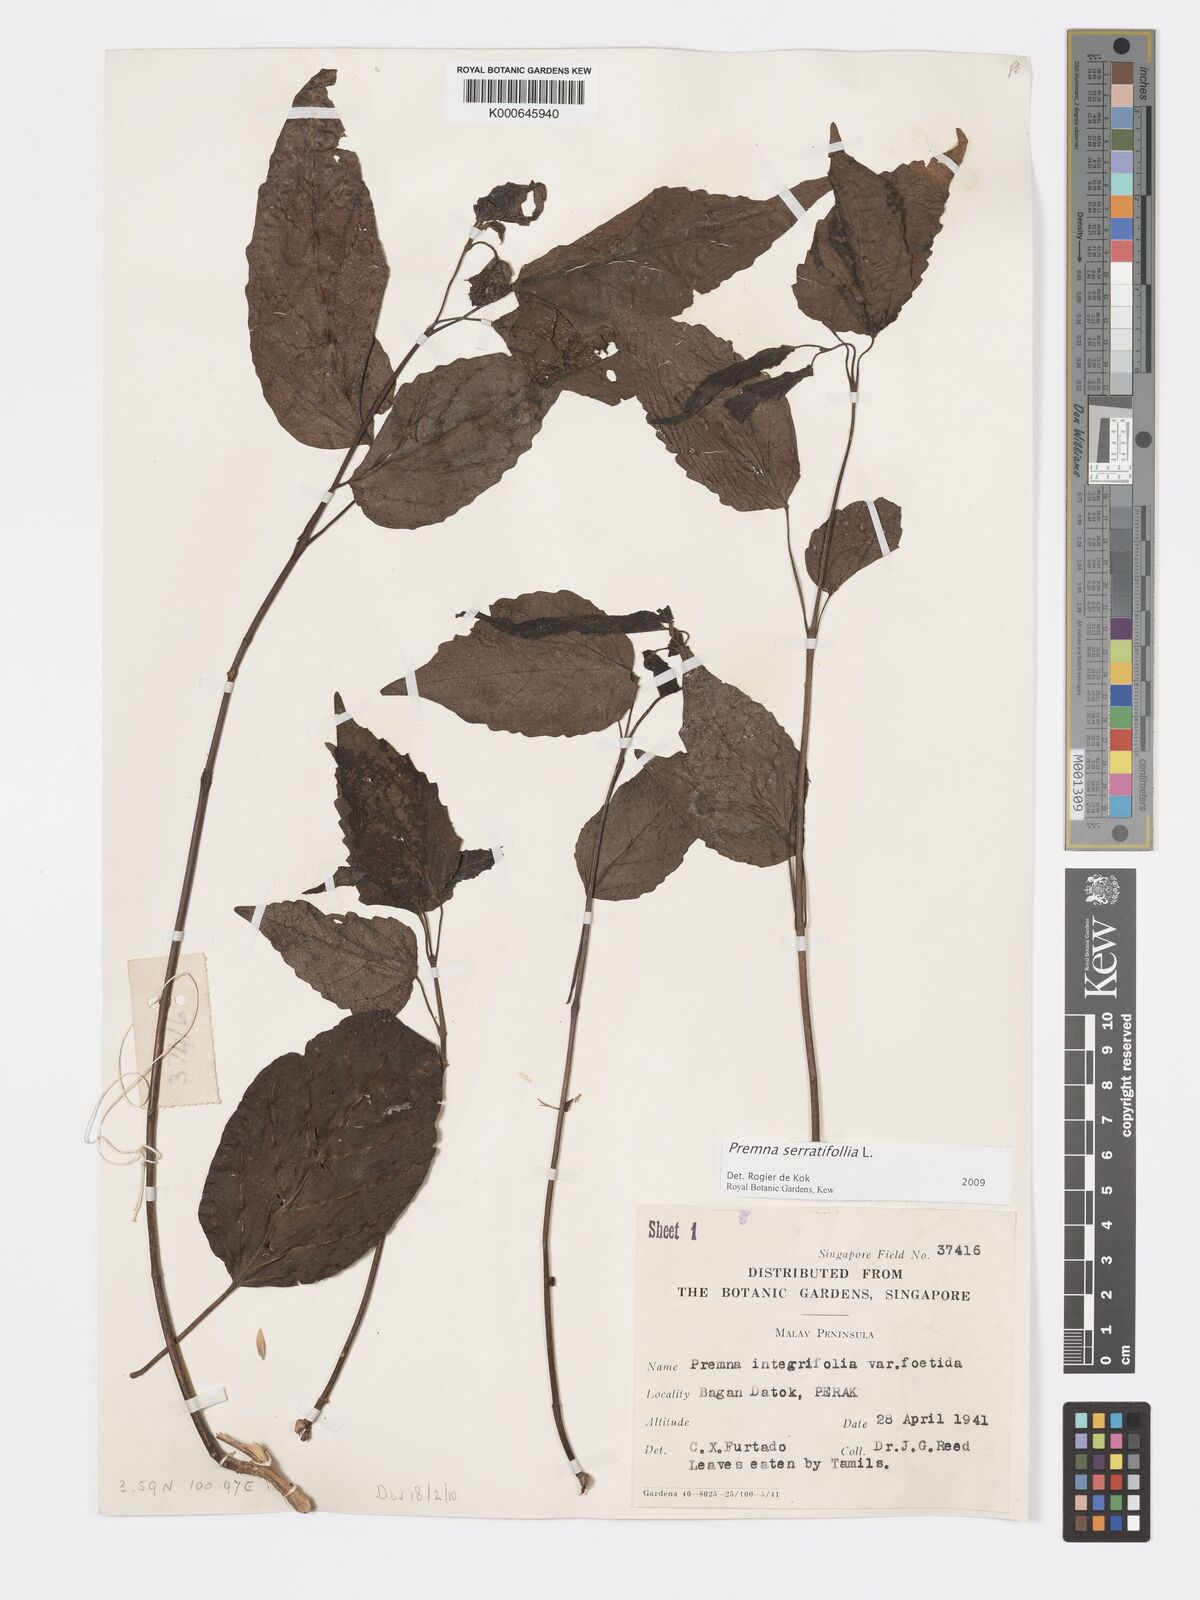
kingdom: Plantae
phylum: Tracheophyta
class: Magnoliopsida
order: Lamiales
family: Lamiaceae
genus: Premna
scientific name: Premna serratifolia
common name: Bastard guelder
